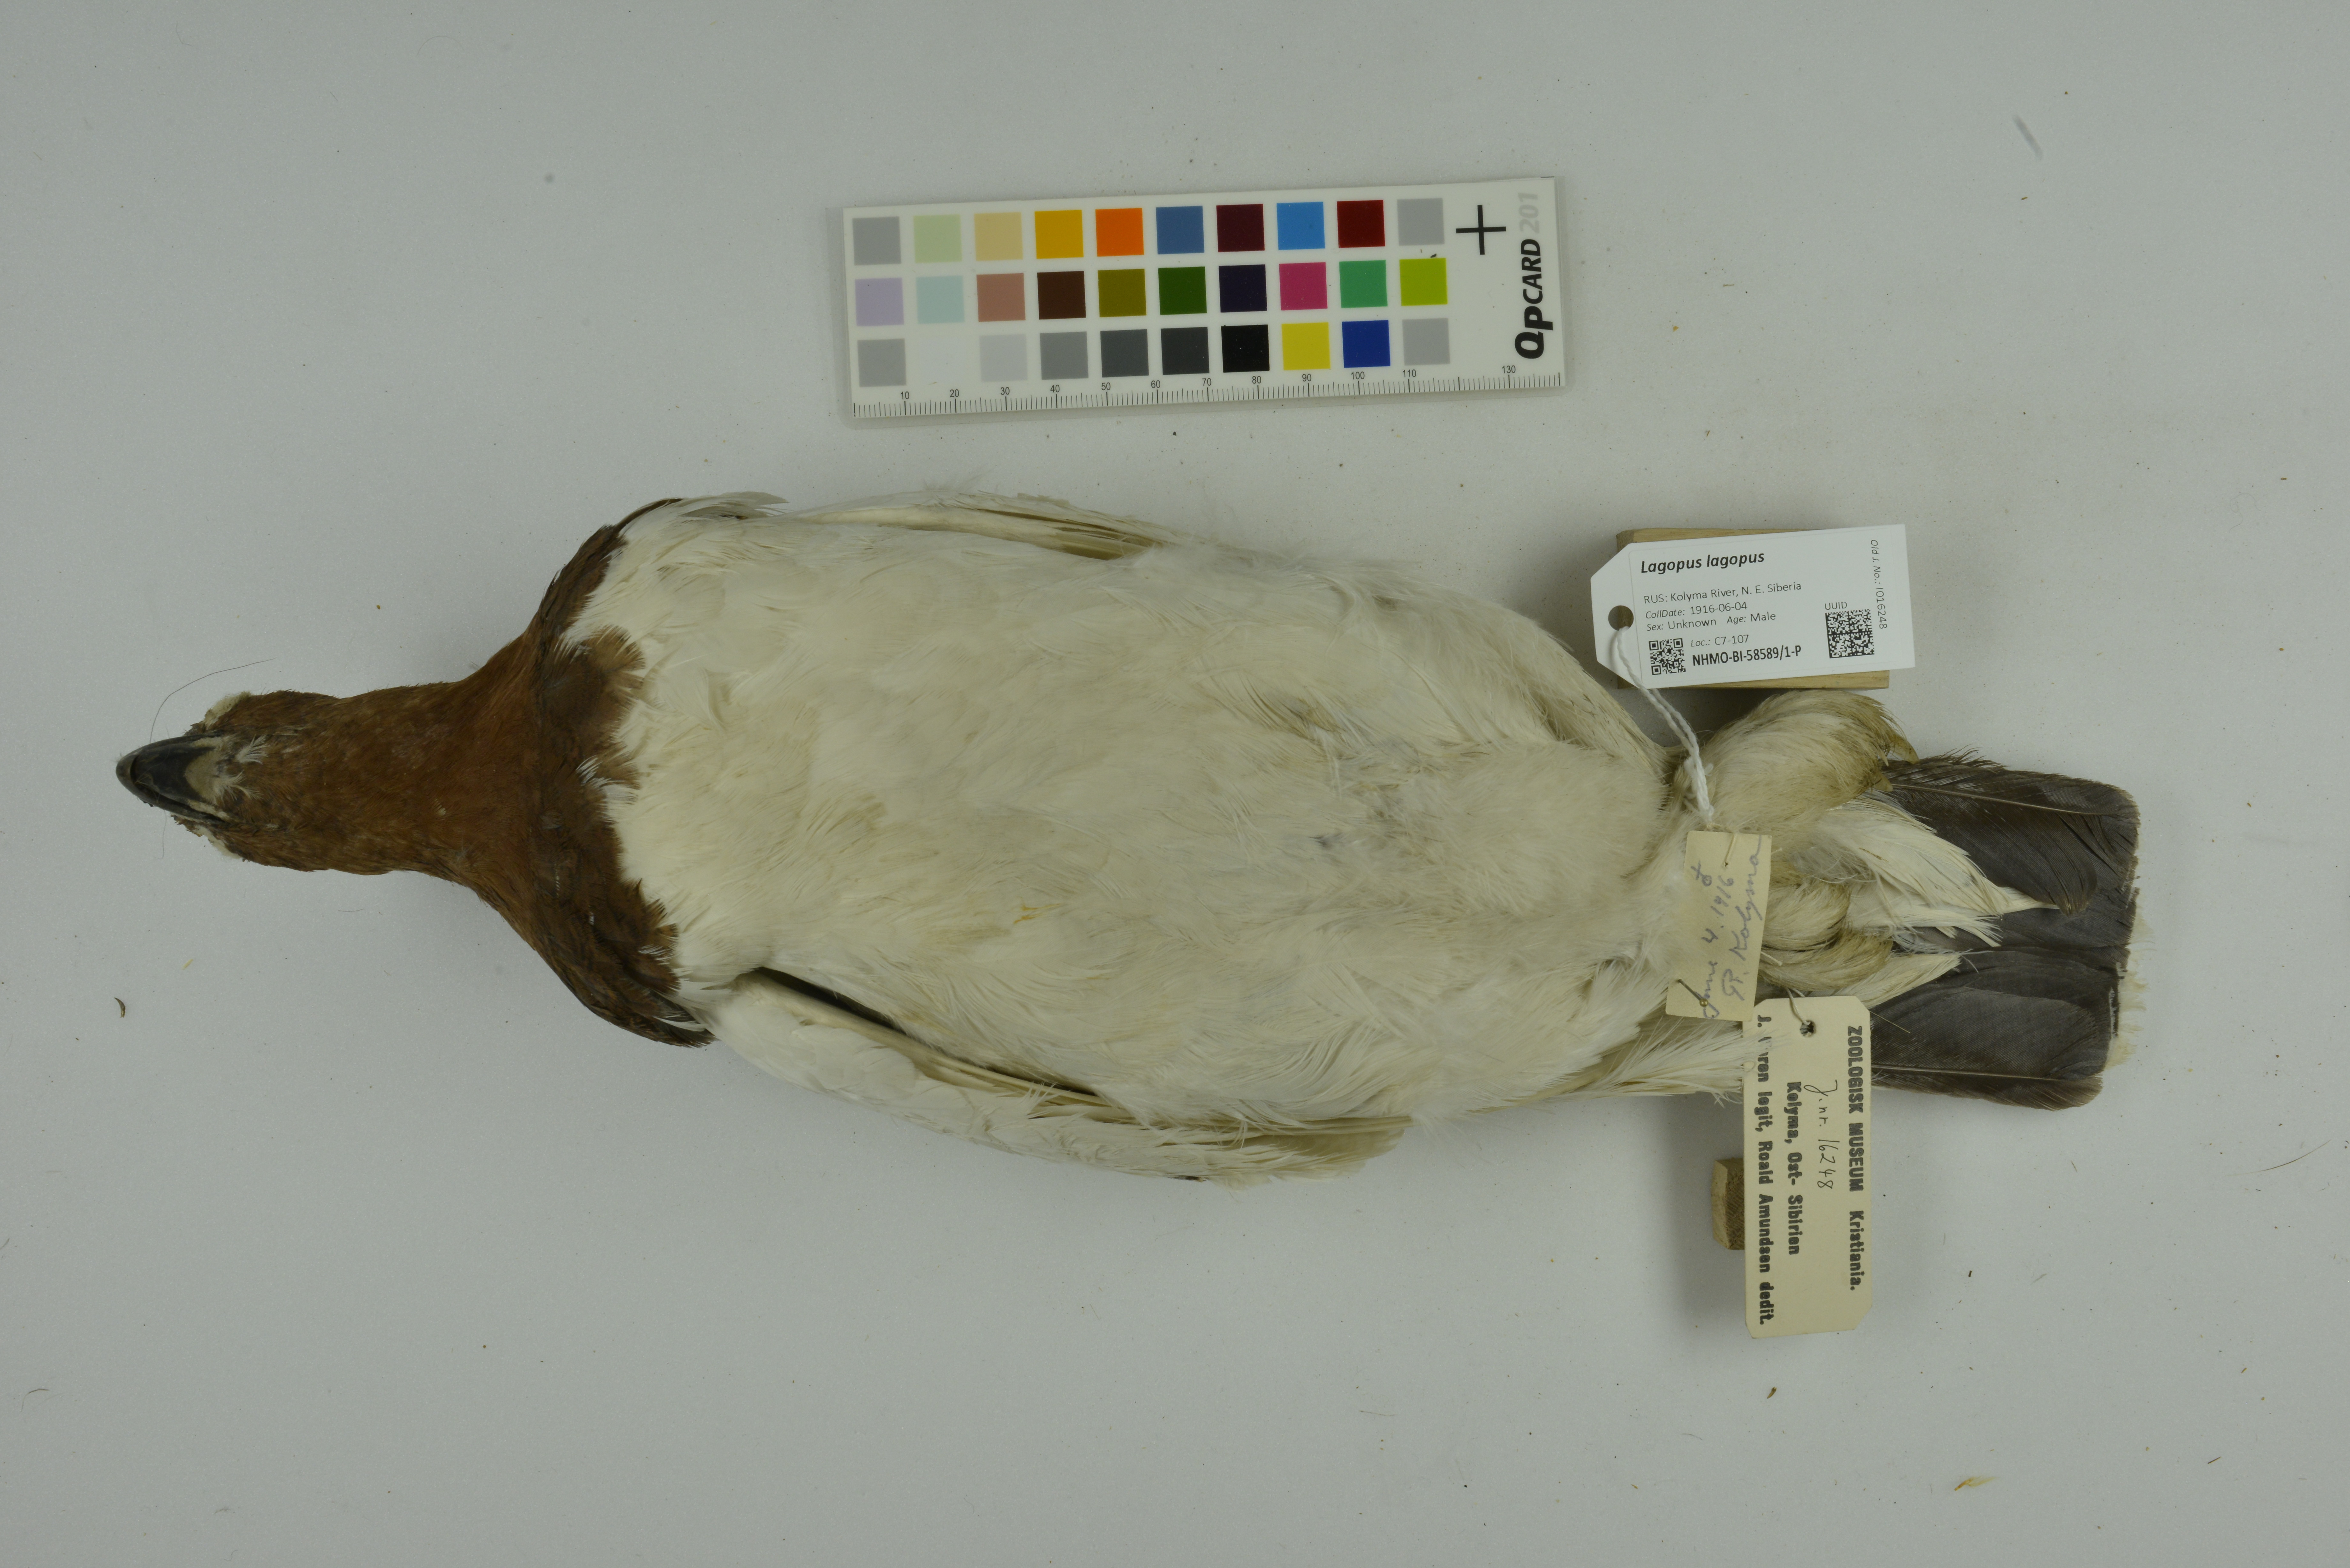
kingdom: Animalia
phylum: Chordata
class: Aves
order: Galliformes
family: Phasianidae
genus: Lagopus
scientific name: Lagopus lagopus
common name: Willow ptarmigan
